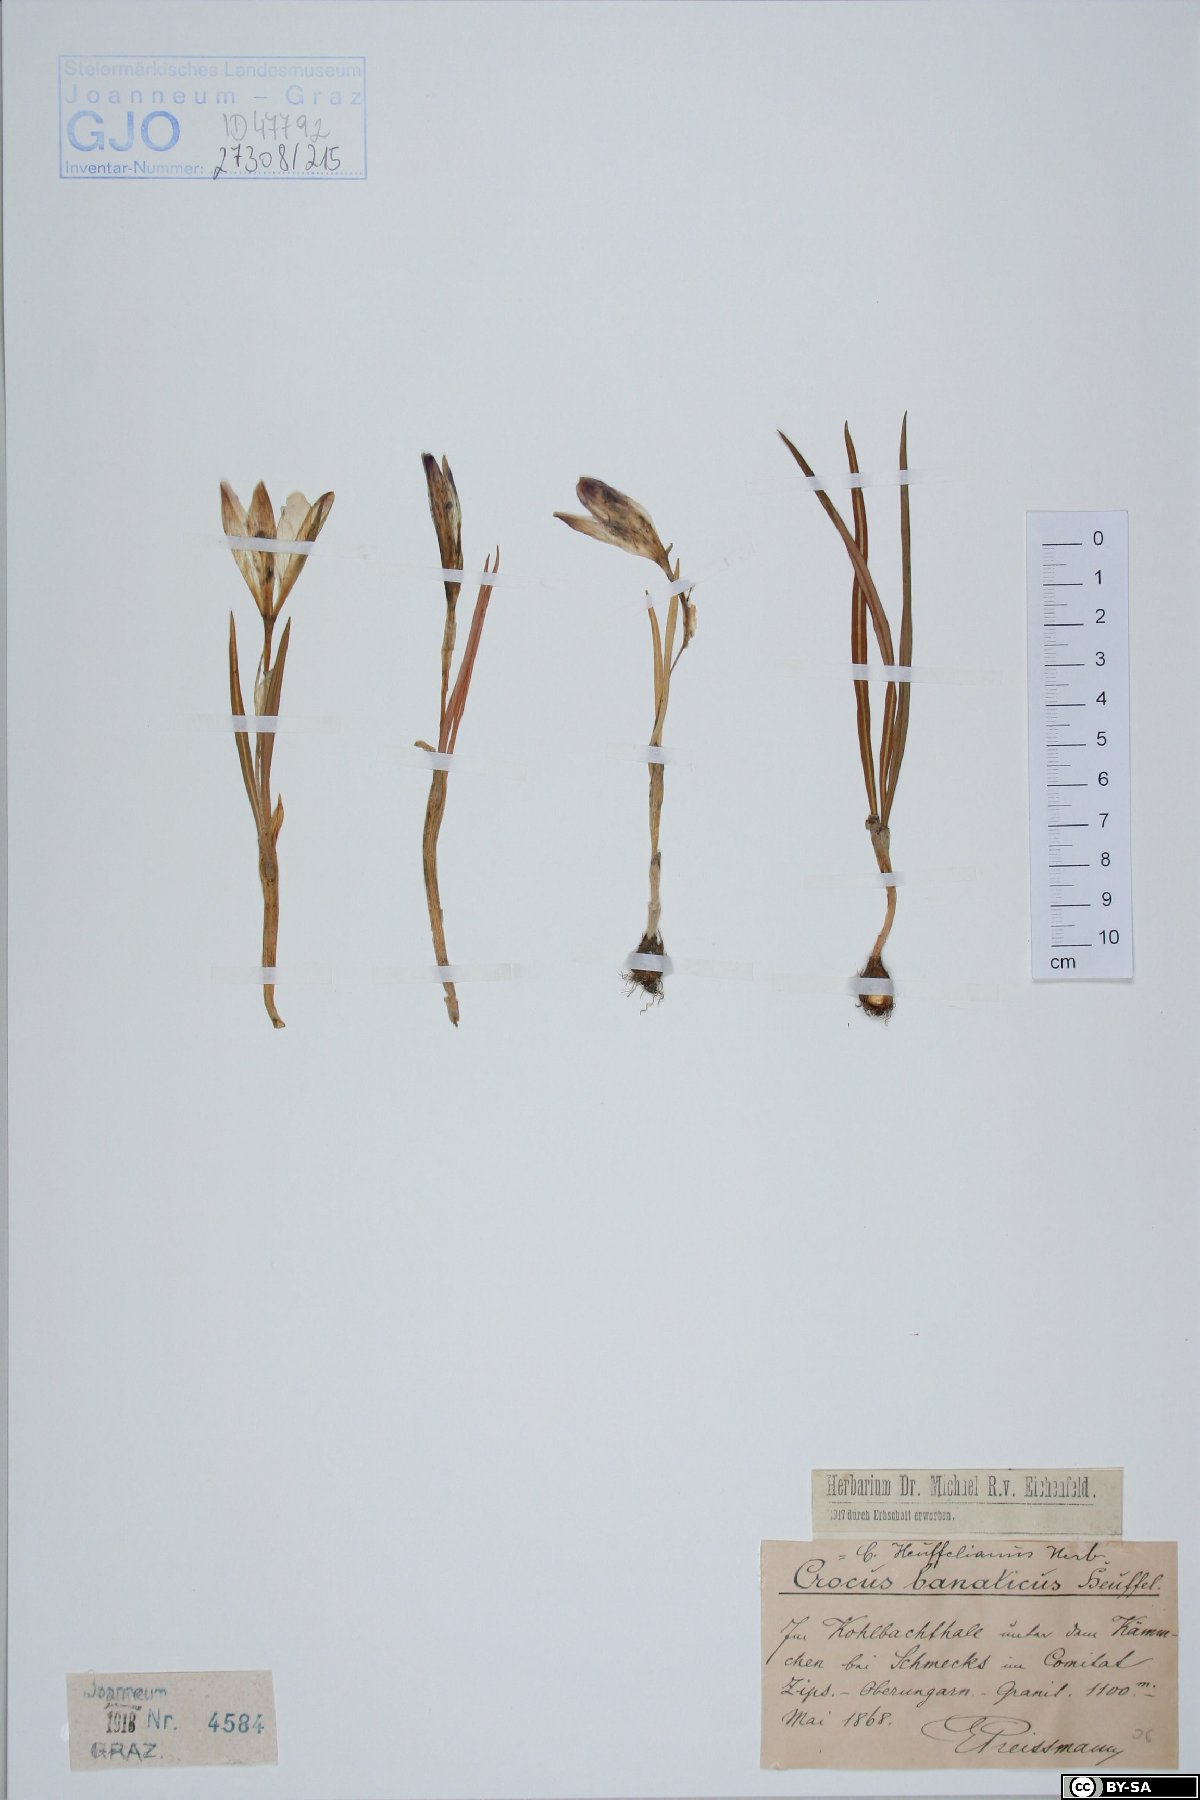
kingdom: Plantae
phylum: Tracheophyta
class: Liliopsida
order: Asparagales
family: Iridaceae
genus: Crocus
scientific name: Crocus heuffelianus
